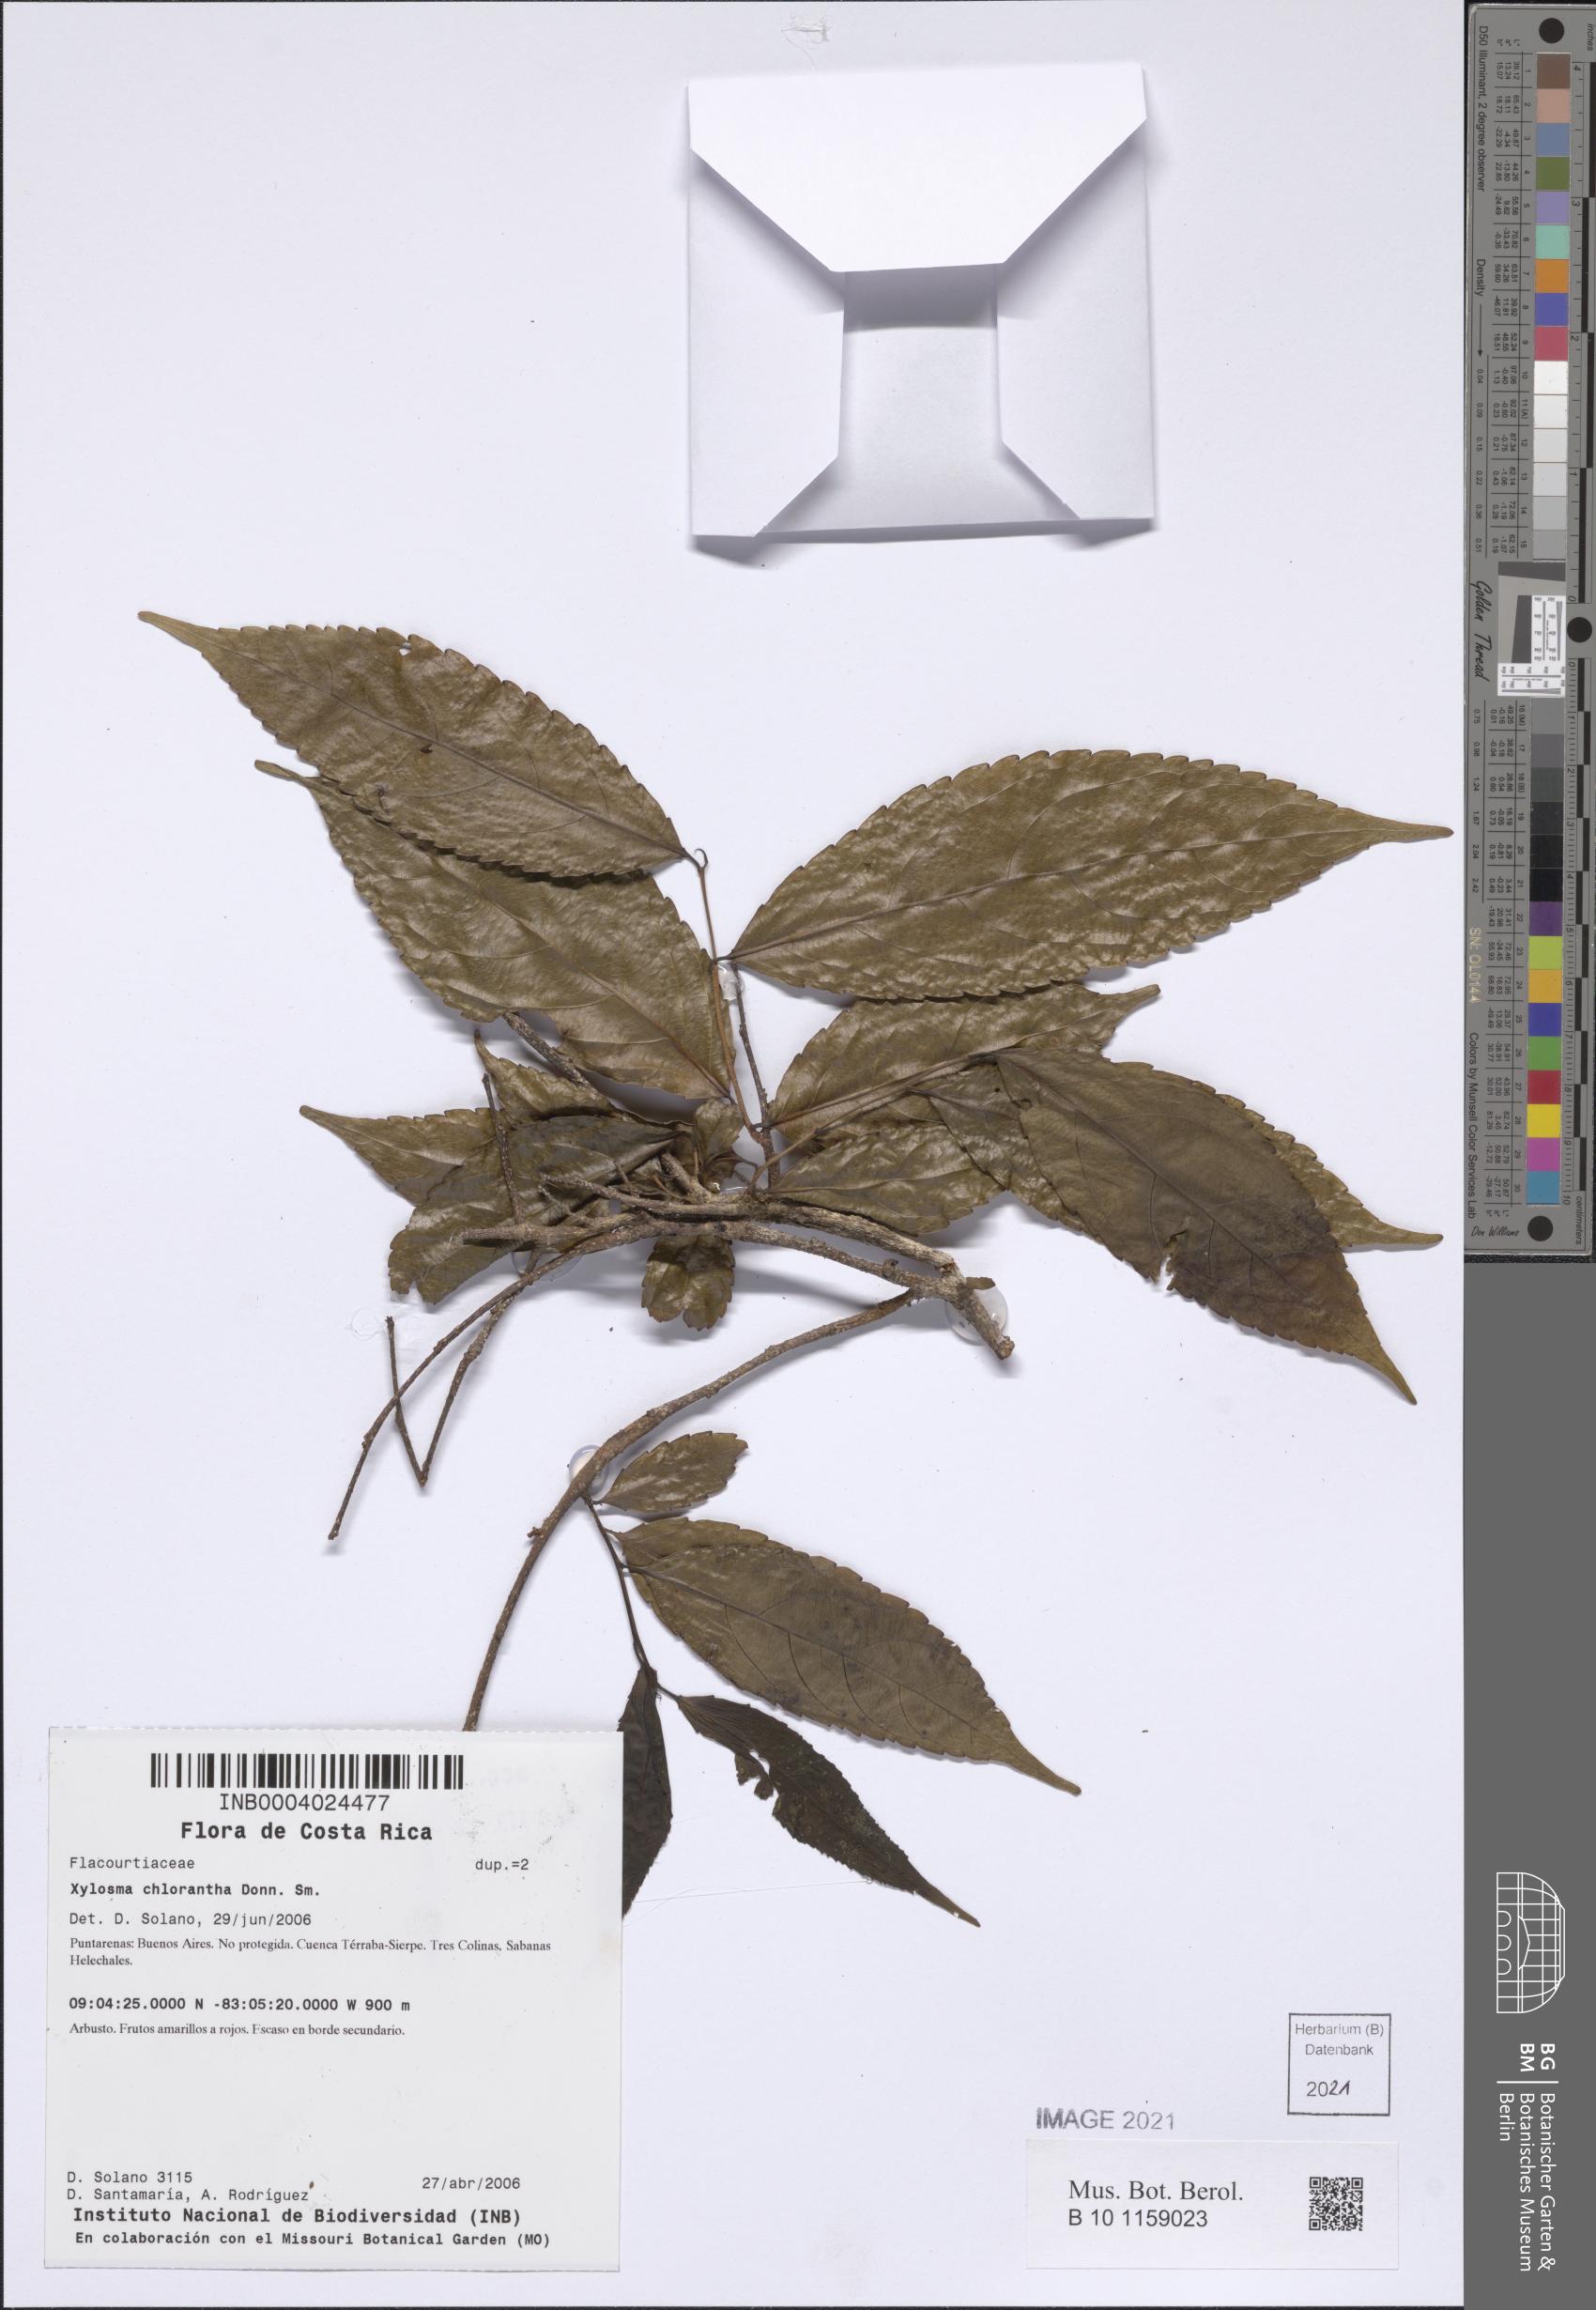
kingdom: Plantae
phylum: Tracheophyta
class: Magnoliopsida
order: Malpighiales
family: Salicaceae
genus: Xylosma
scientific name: Xylosma chlorantha
